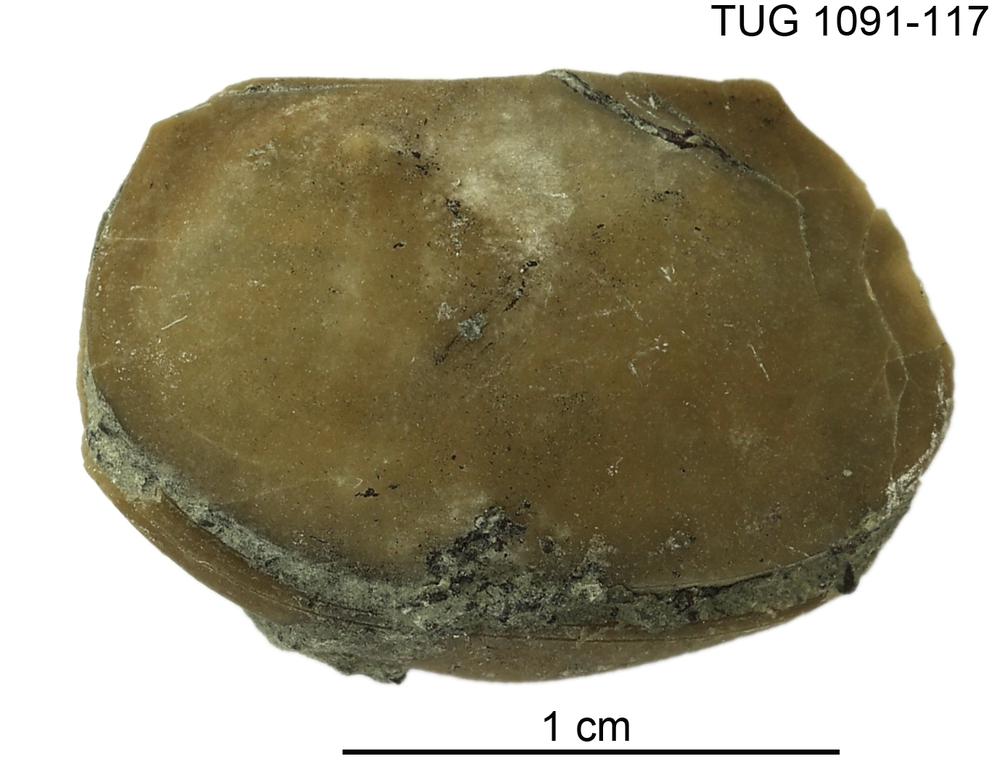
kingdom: Animalia
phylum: Arthropoda
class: Ostracoda
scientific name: Ostracoda
